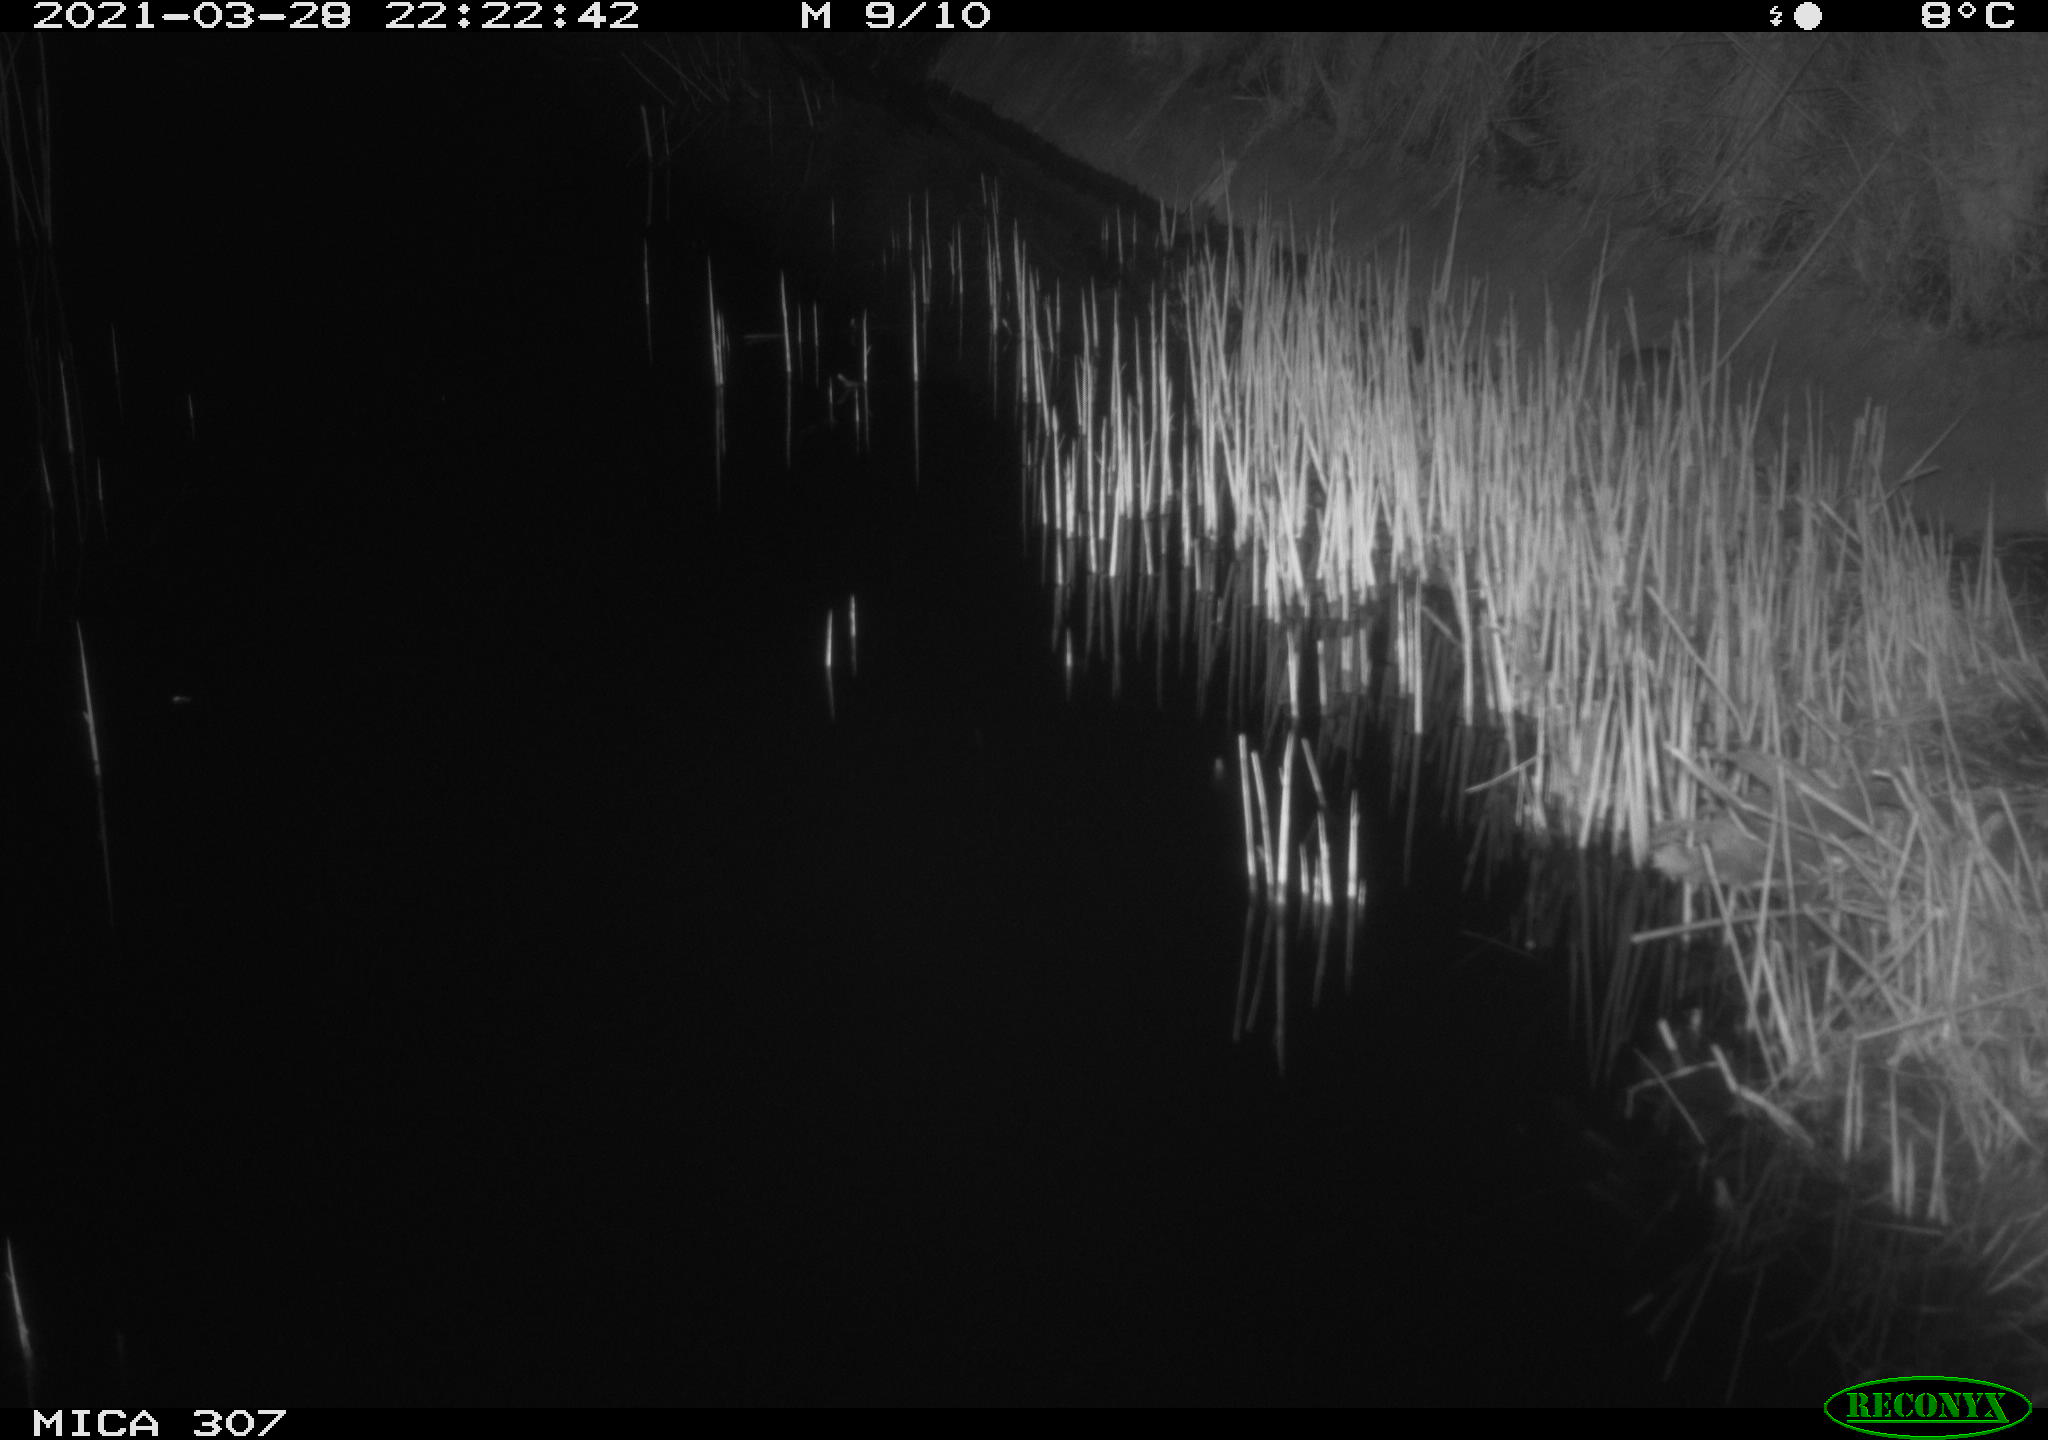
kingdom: Animalia
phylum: Chordata
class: Mammalia
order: Rodentia
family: Muridae
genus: Rattus
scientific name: Rattus norvegicus
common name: Brown rat
